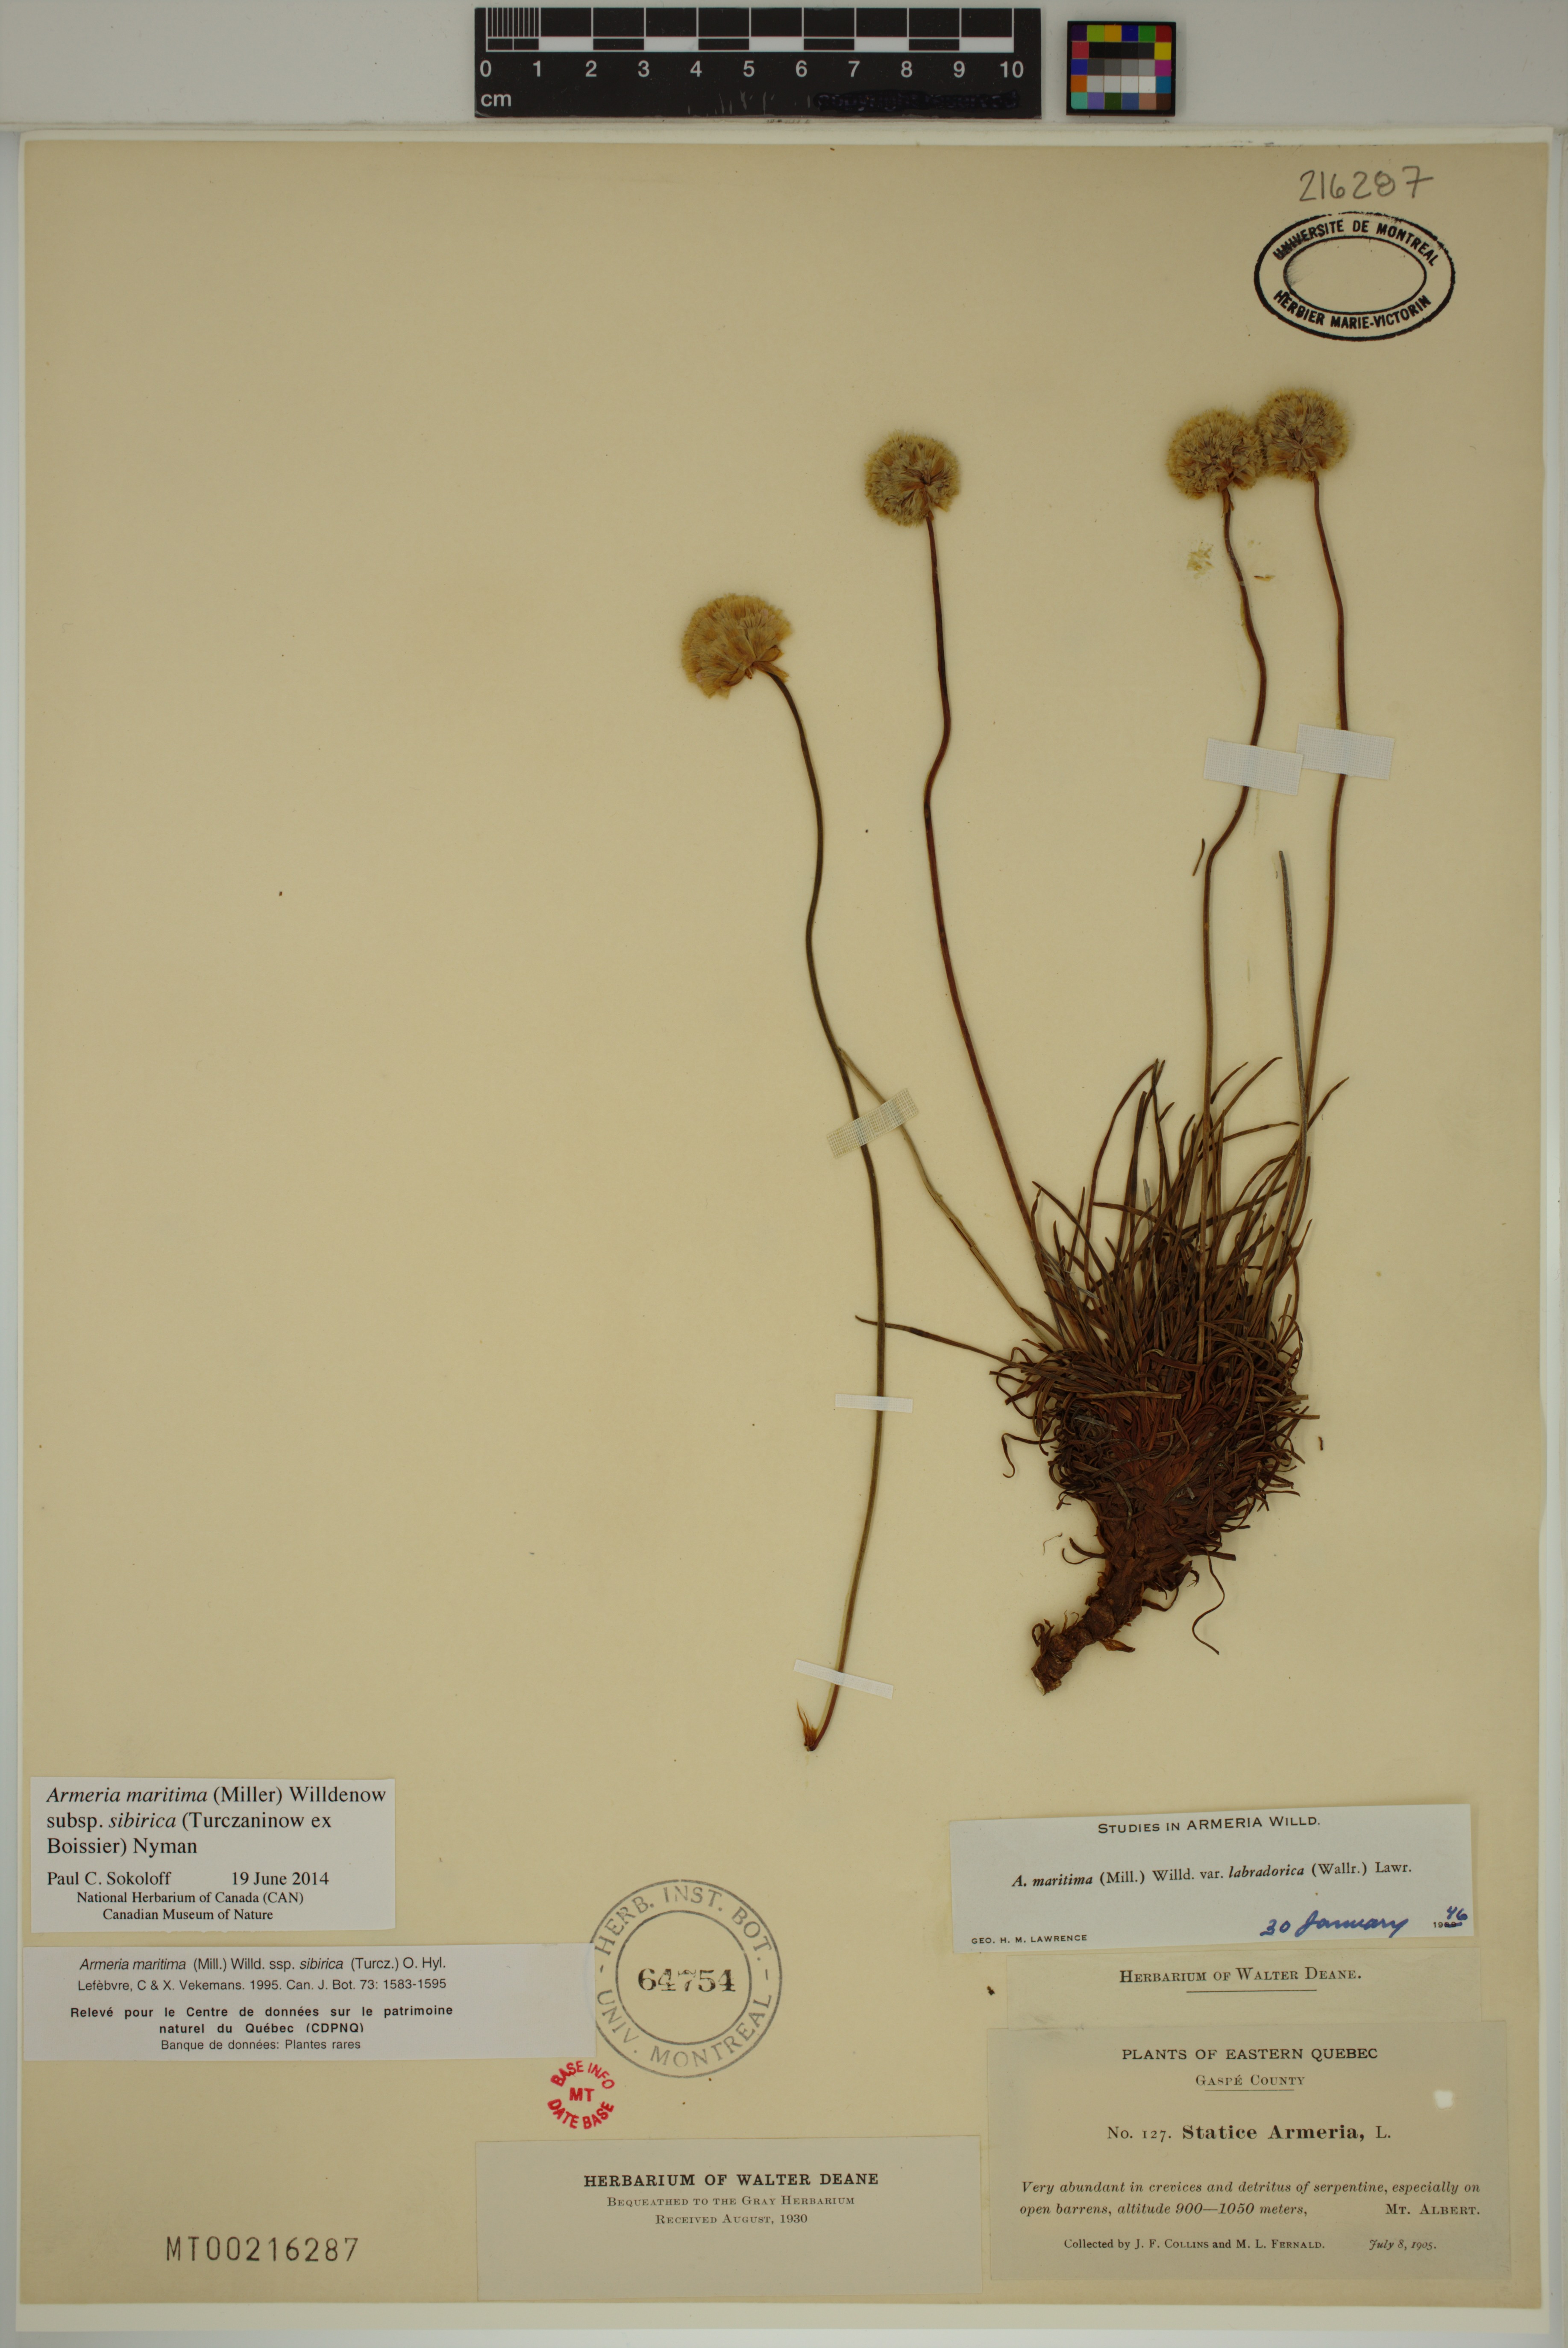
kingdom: Plantae
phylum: Tracheophyta
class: Magnoliopsida
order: Caryophyllales
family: Plumbaginaceae
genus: Armeria
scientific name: Armeria maritima
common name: Thrift
